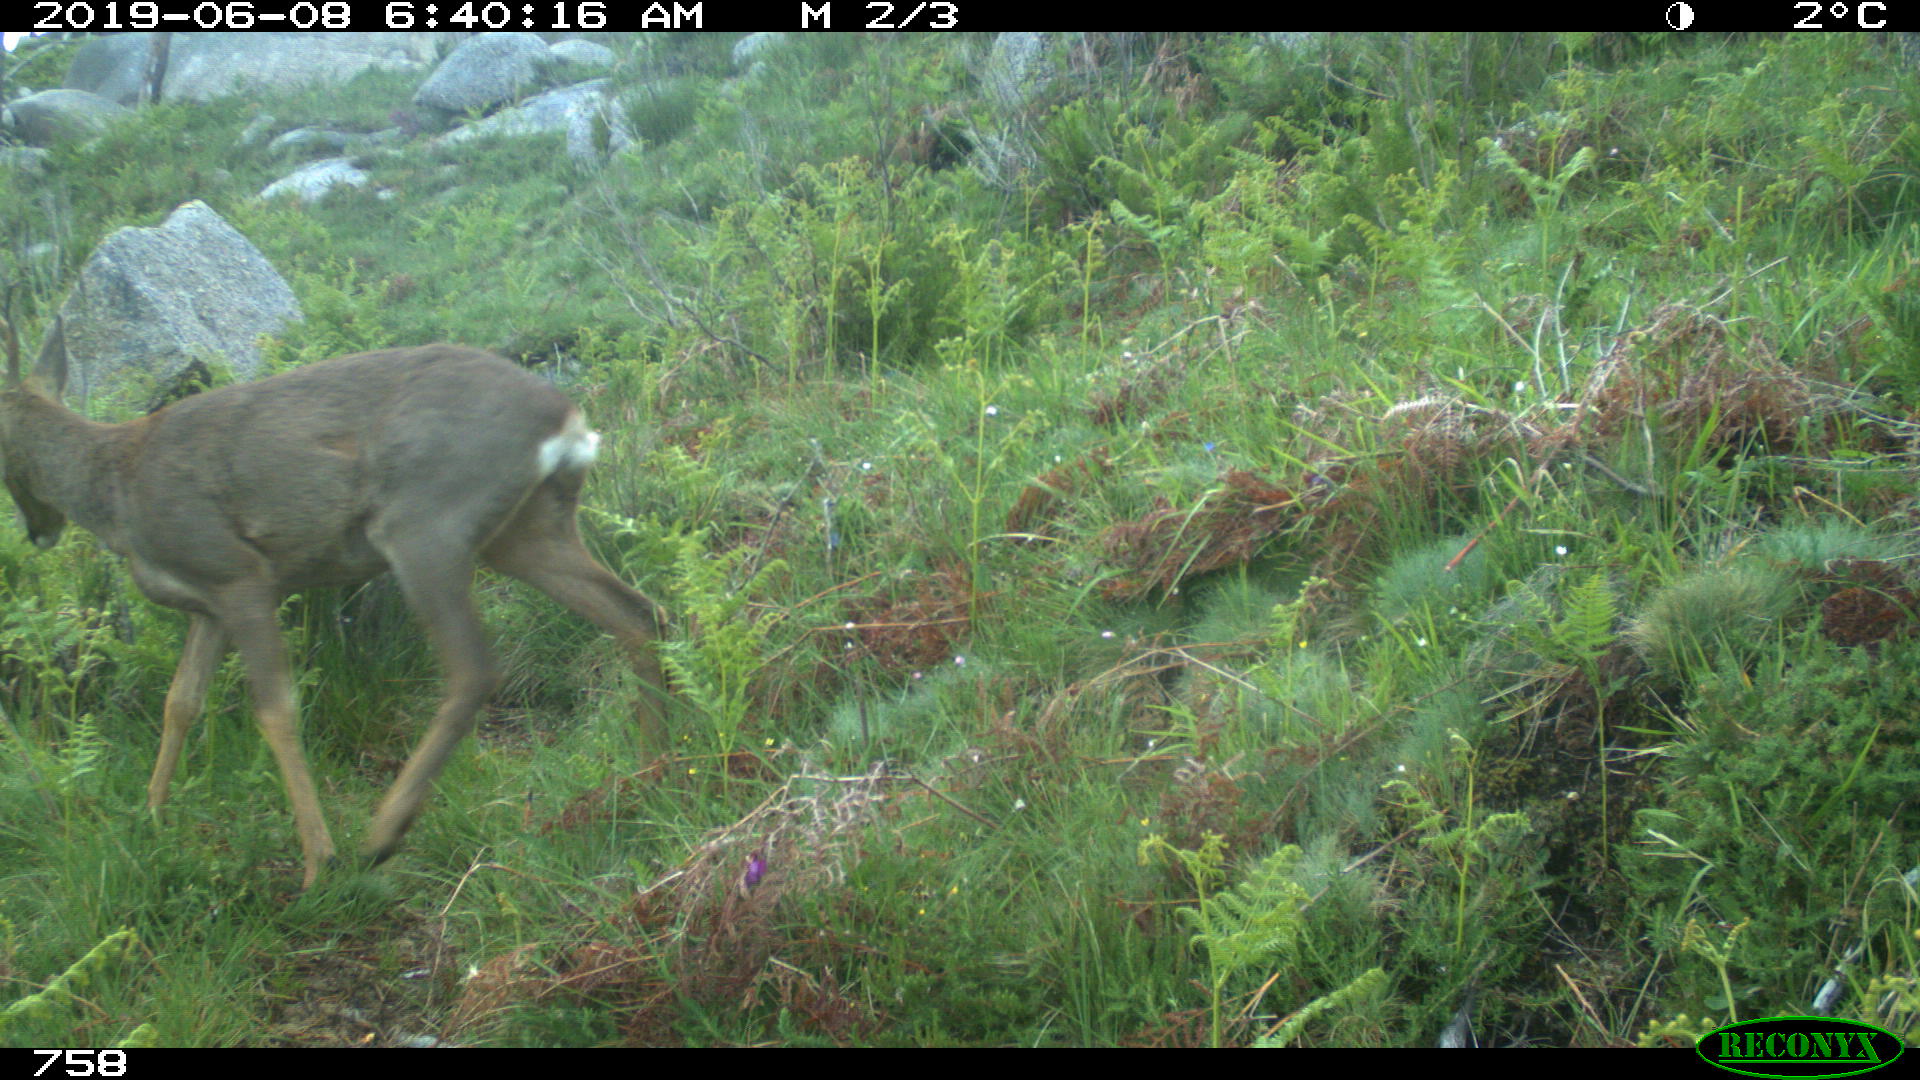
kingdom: Animalia
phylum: Chordata
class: Mammalia
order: Artiodactyla
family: Cervidae
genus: Capreolus
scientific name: Capreolus capreolus
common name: Western roe deer
